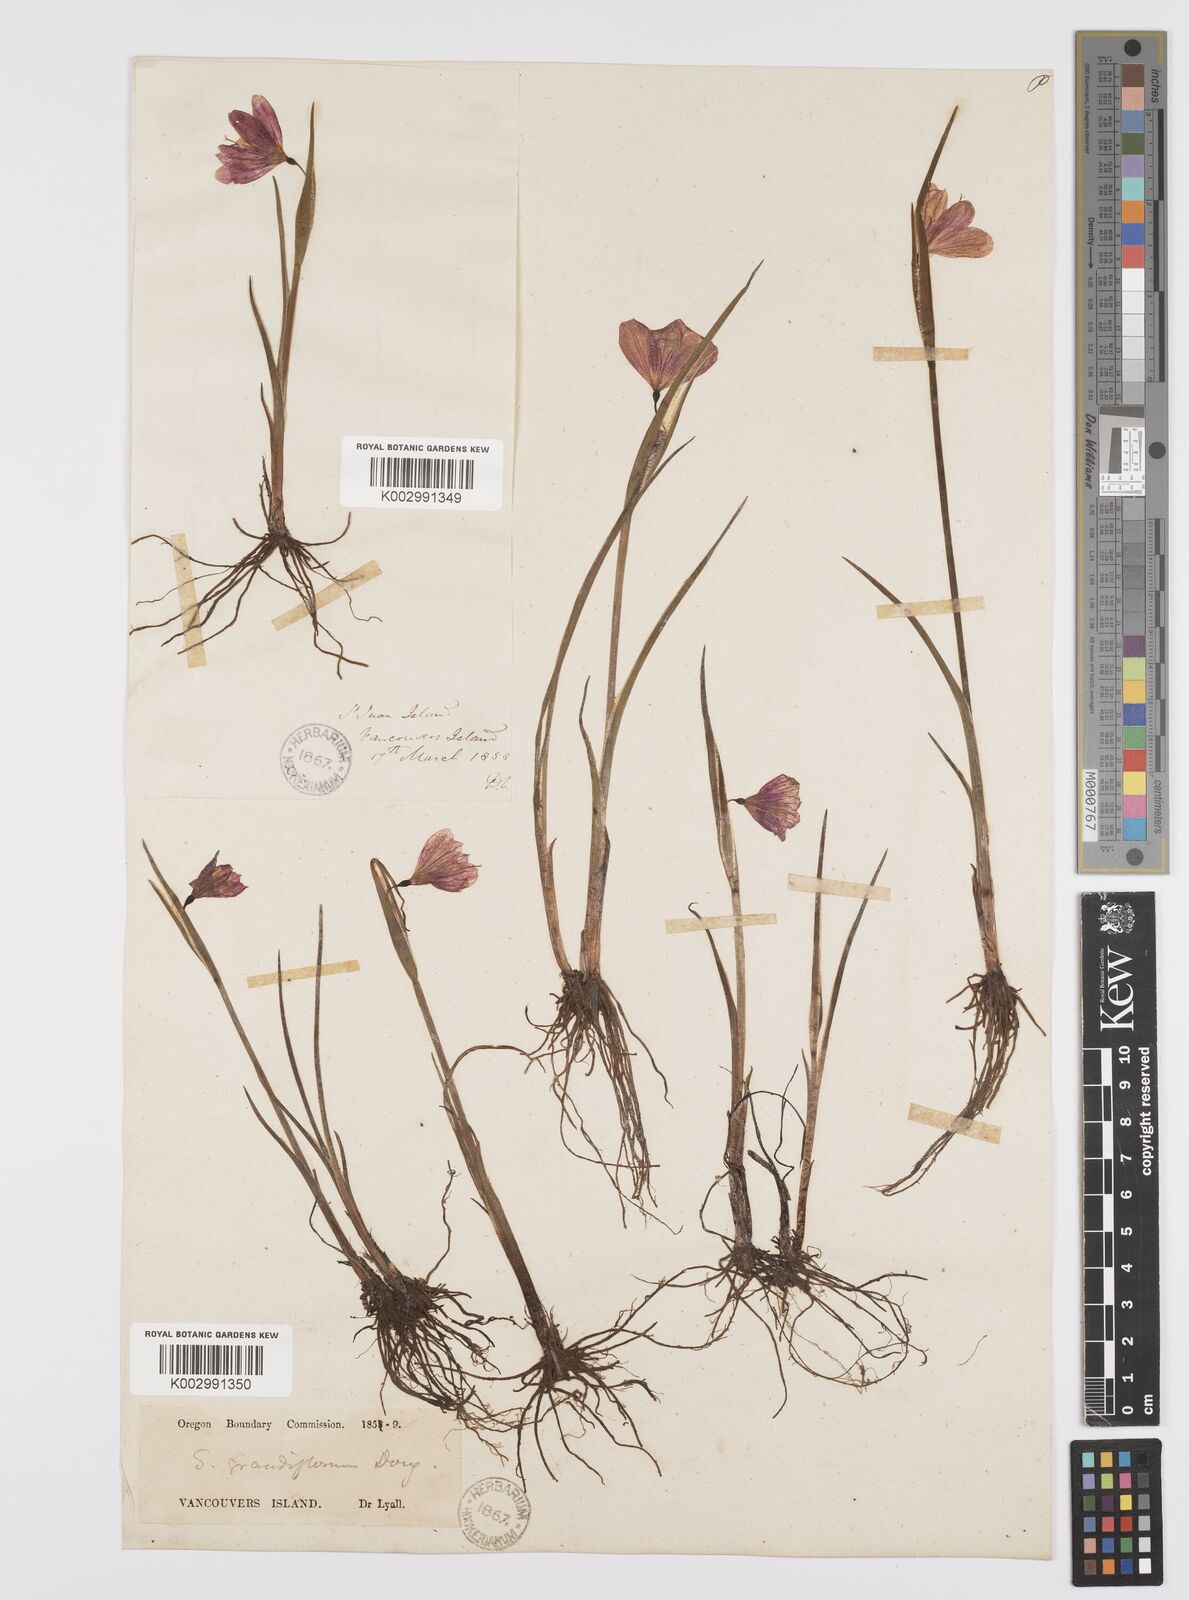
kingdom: Plantae
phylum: Tracheophyta
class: Liliopsida
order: Asparagales
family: Iridaceae
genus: Olsynium
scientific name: Olsynium douglasii
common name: Douglas' grasswidow
